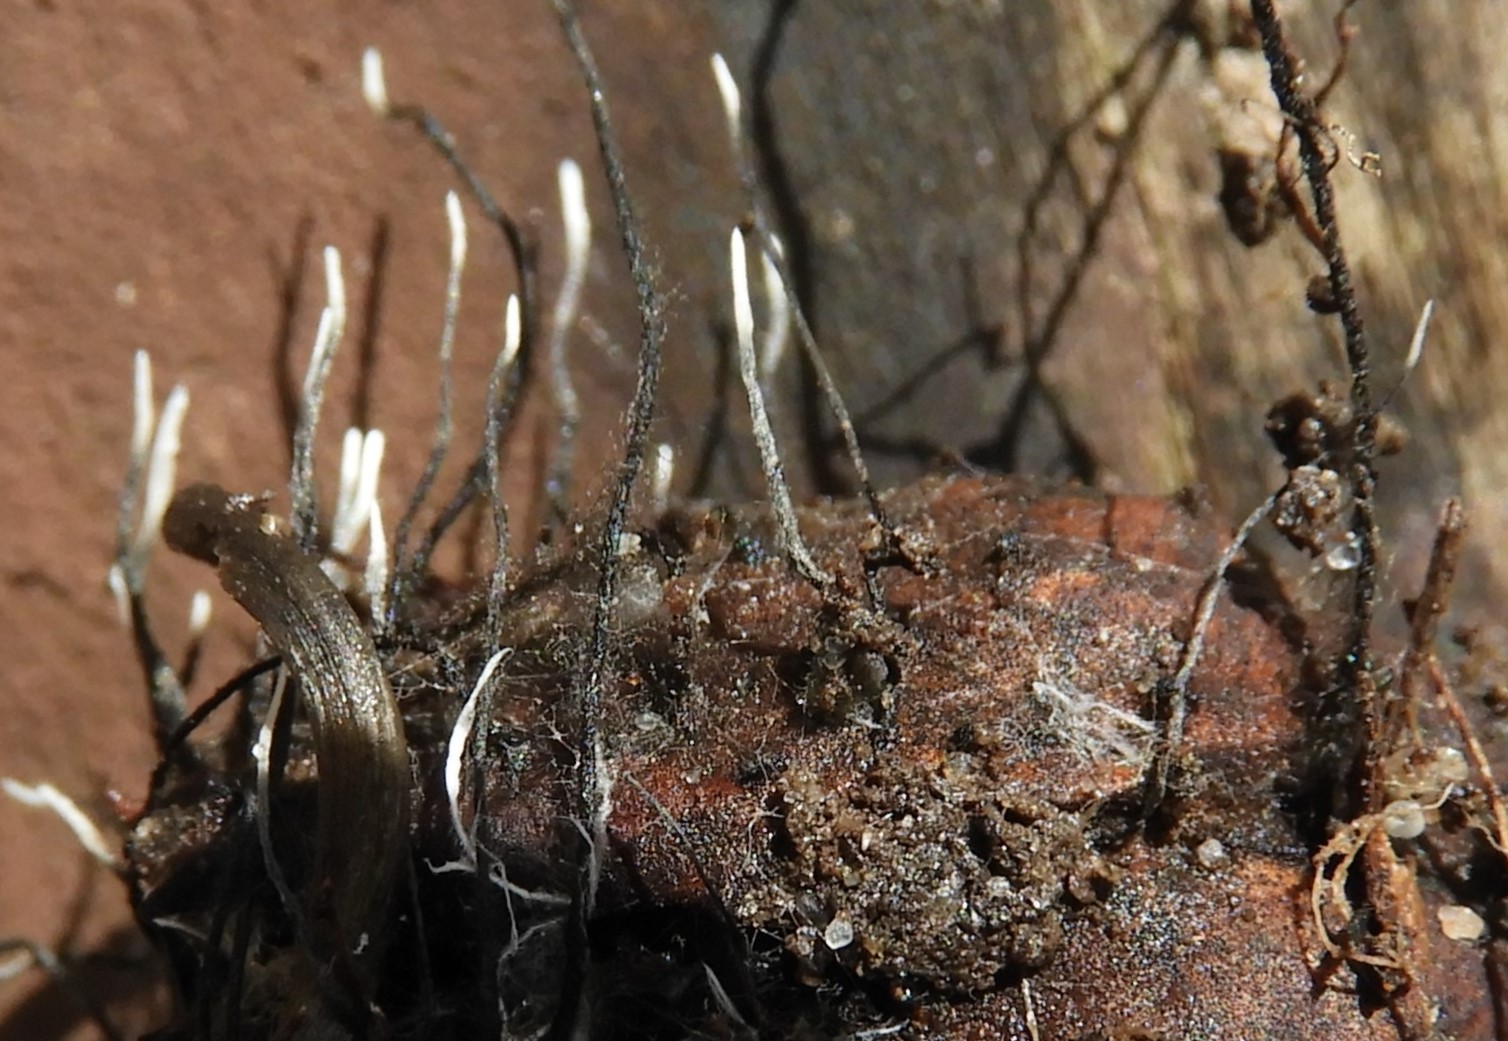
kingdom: Fungi
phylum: Ascomycota
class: Sordariomycetes
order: Xylariales
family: Xylariaceae
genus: Xylaria
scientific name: Xylaria carpophila
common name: bogskål-stødsvamp
